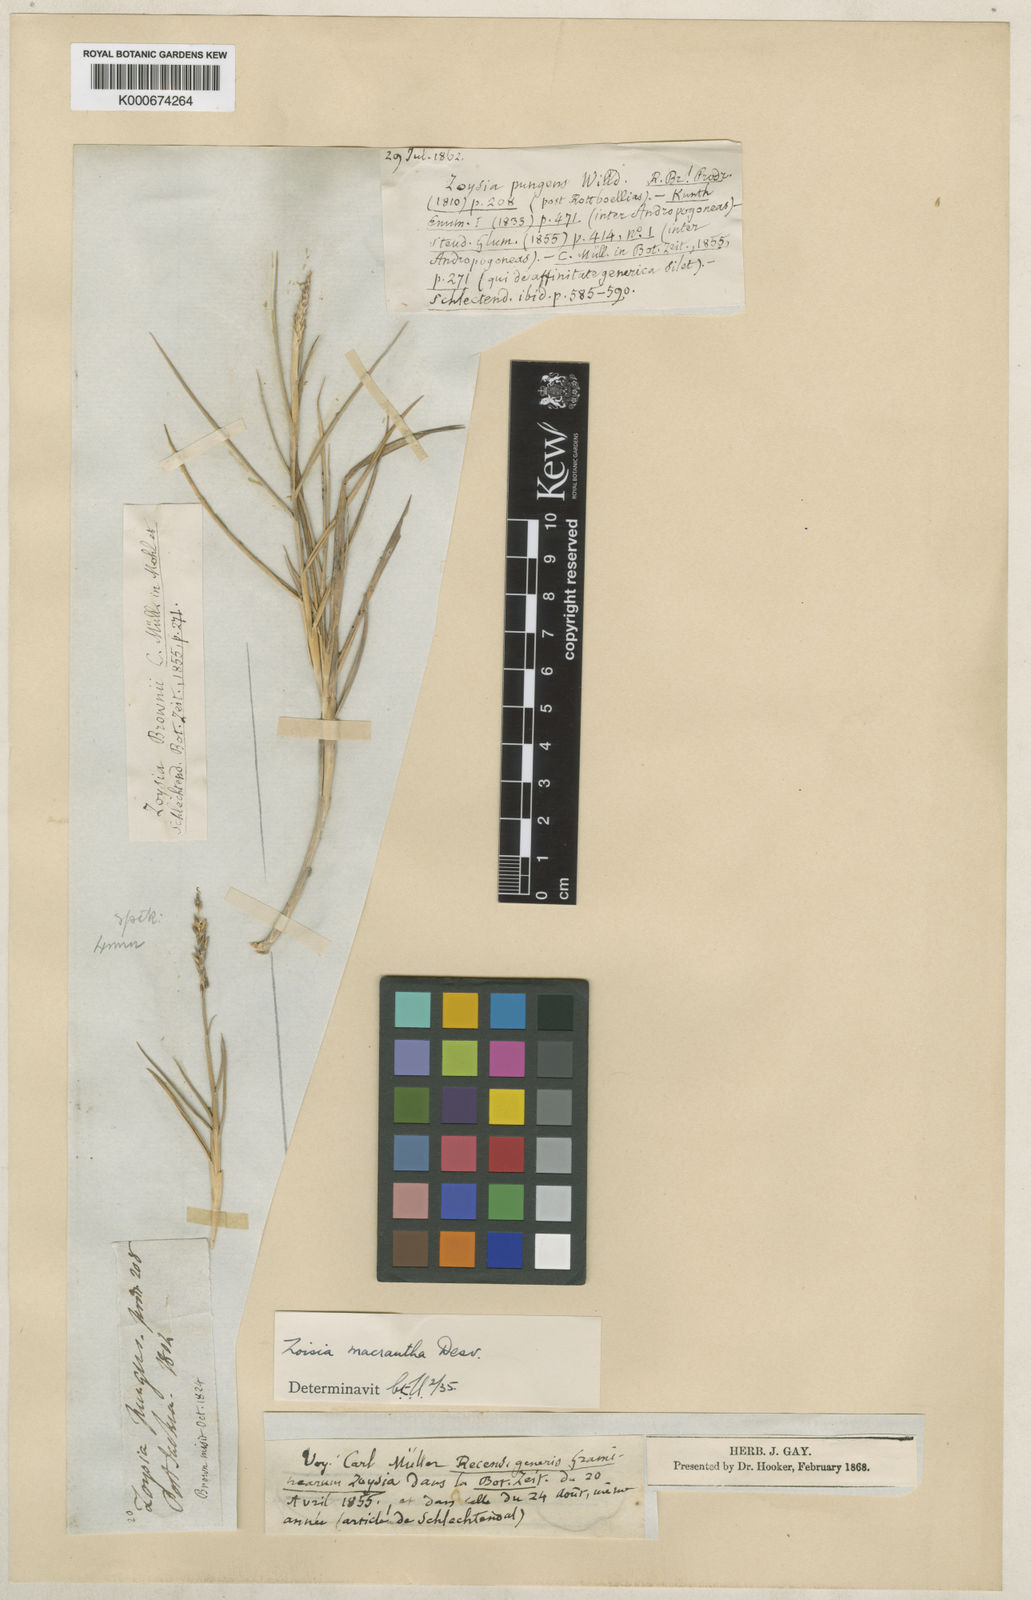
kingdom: Plantae
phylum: Tracheophyta
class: Liliopsida
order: Poales
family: Poaceae
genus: Zoysia
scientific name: Zoysia macrantha
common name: Korean lawn grass
